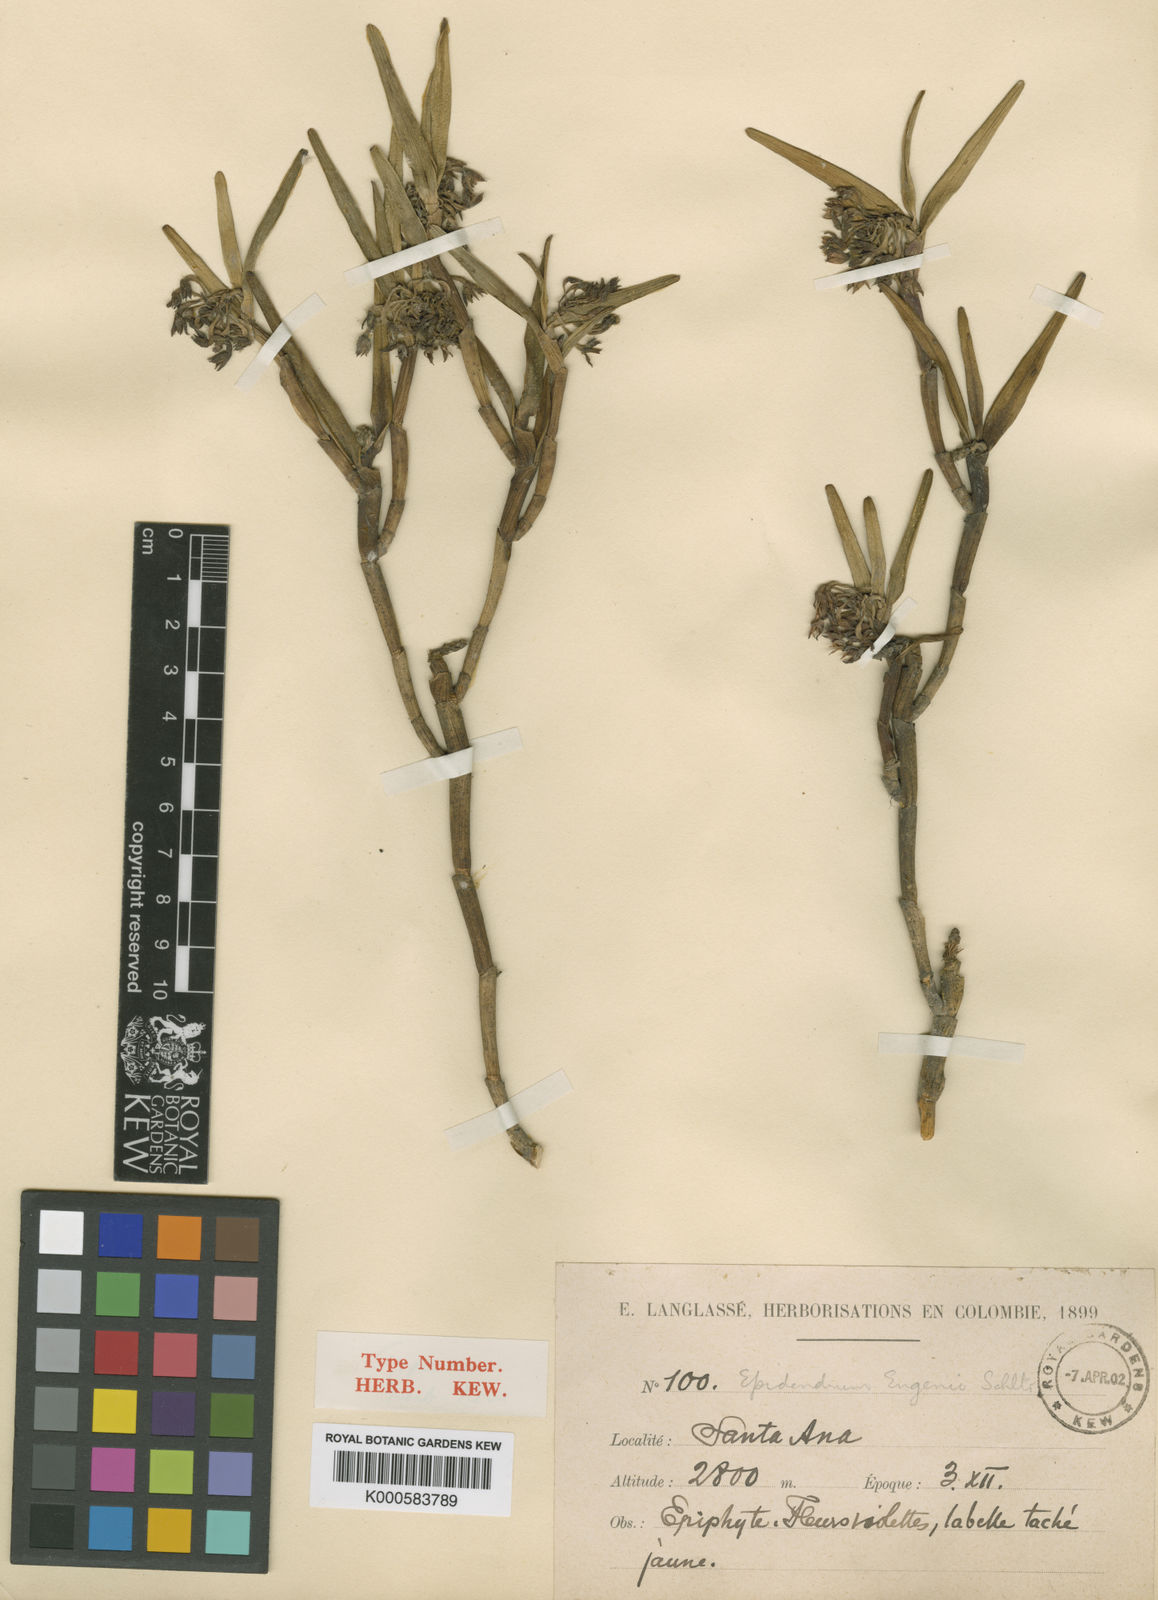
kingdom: Plantae
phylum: Tracheophyta
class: Liliopsida
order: Asparagales
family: Orchidaceae
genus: Epidendrum
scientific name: Epidendrum eugenii
